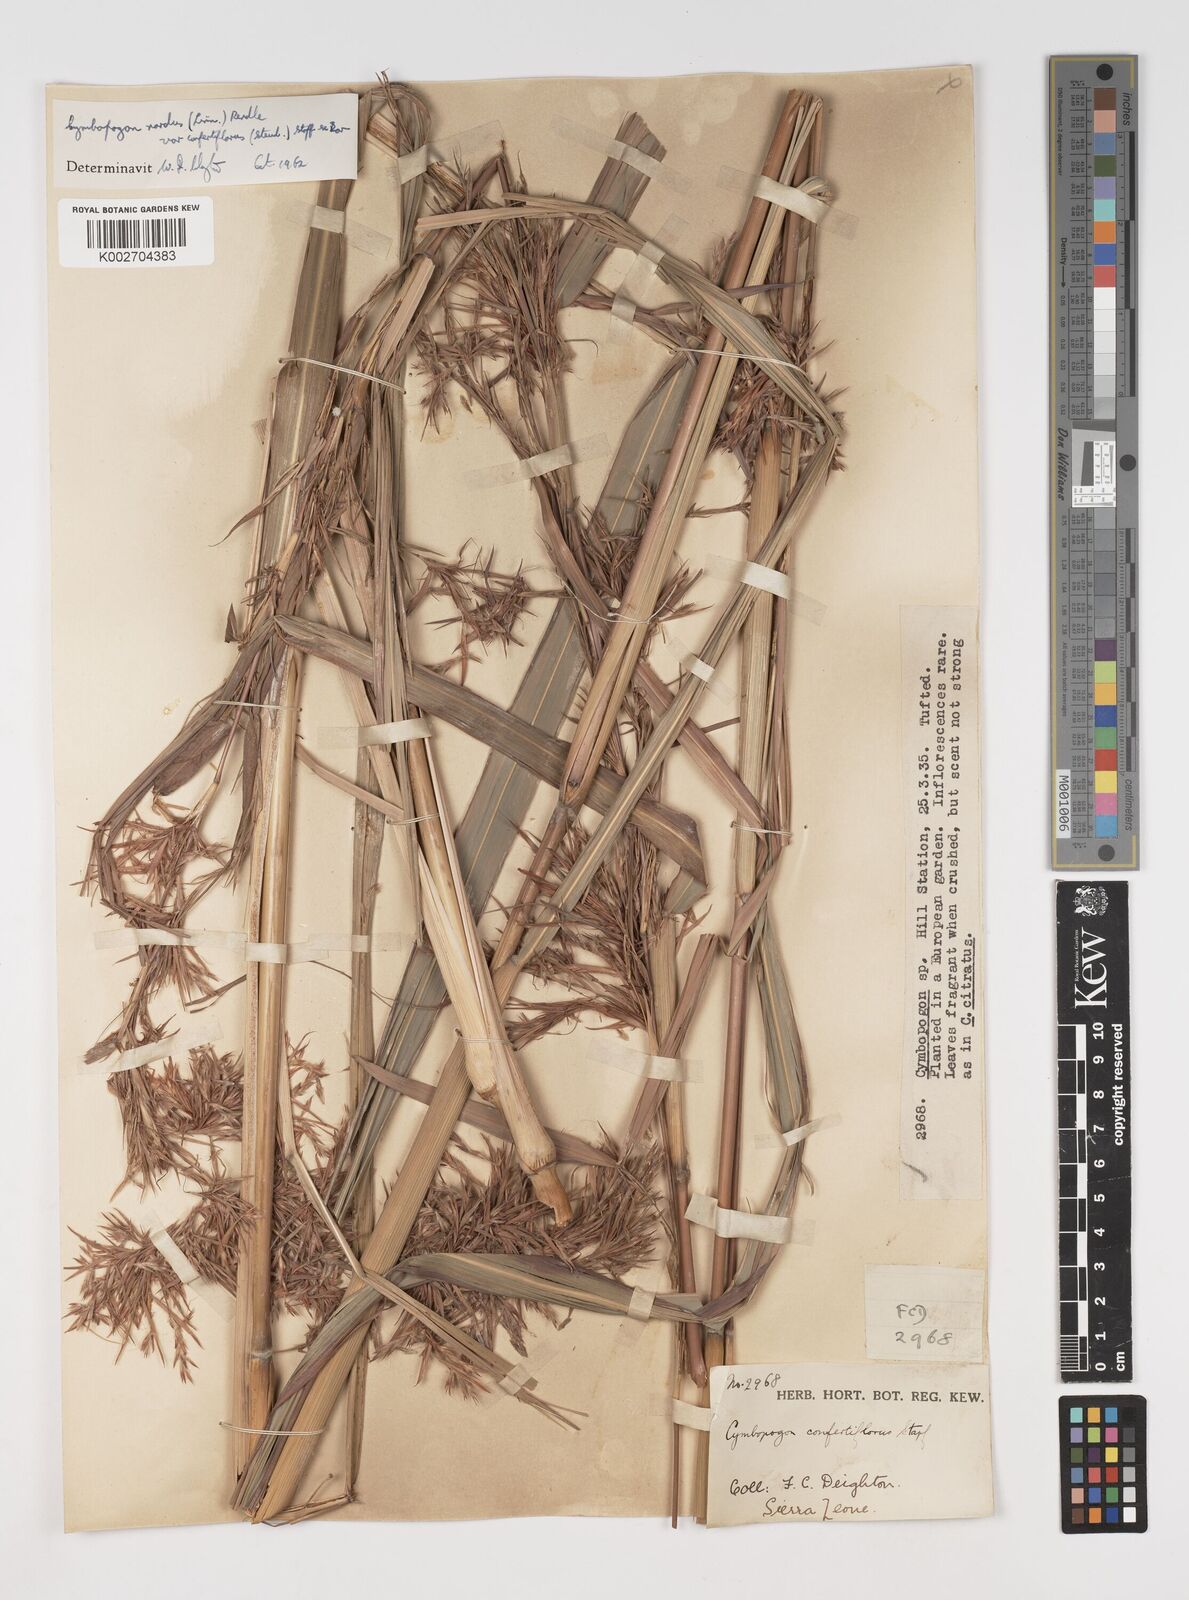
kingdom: Plantae
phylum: Tracheophyta
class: Liliopsida
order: Poales
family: Poaceae
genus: Cymbopogon
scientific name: Cymbopogon nardus
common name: Giant turpentine grass
